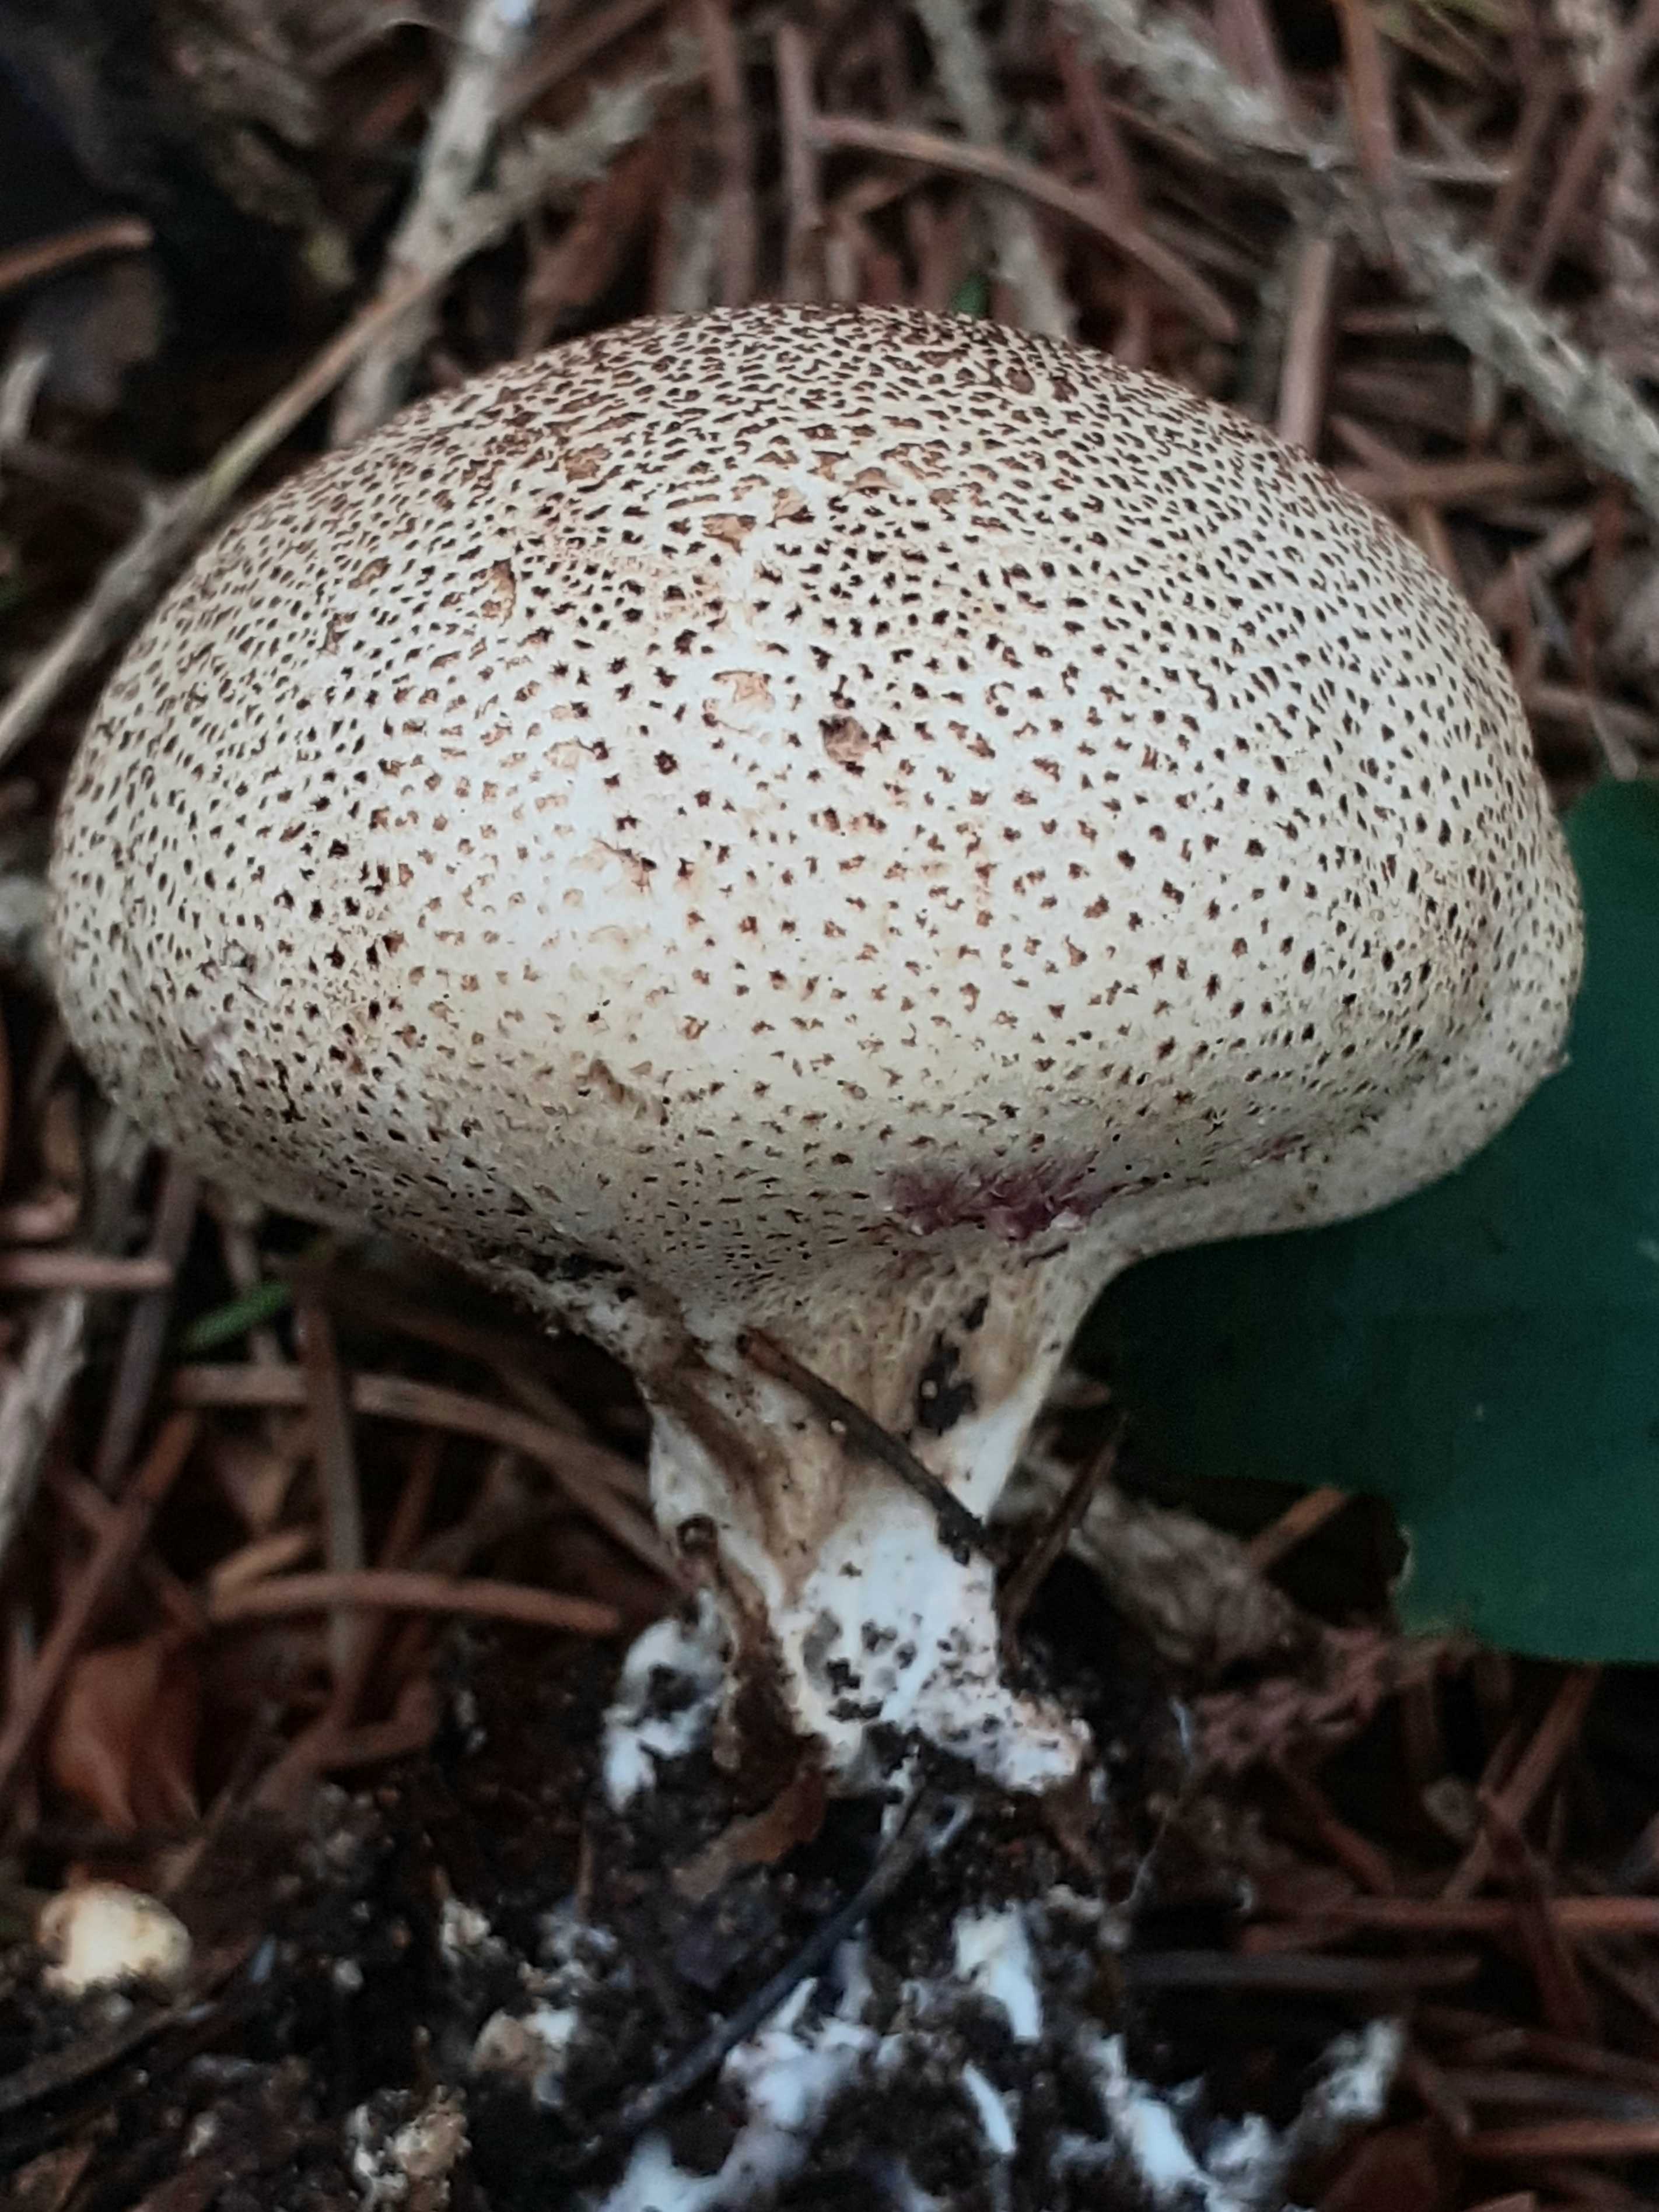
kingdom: Fungi
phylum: Basidiomycota
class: Agaricomycetes
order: Boletales
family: Sclerodermataceae
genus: Scleroderma
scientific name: Scleroderma areolatum
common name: plettet bruskbold
